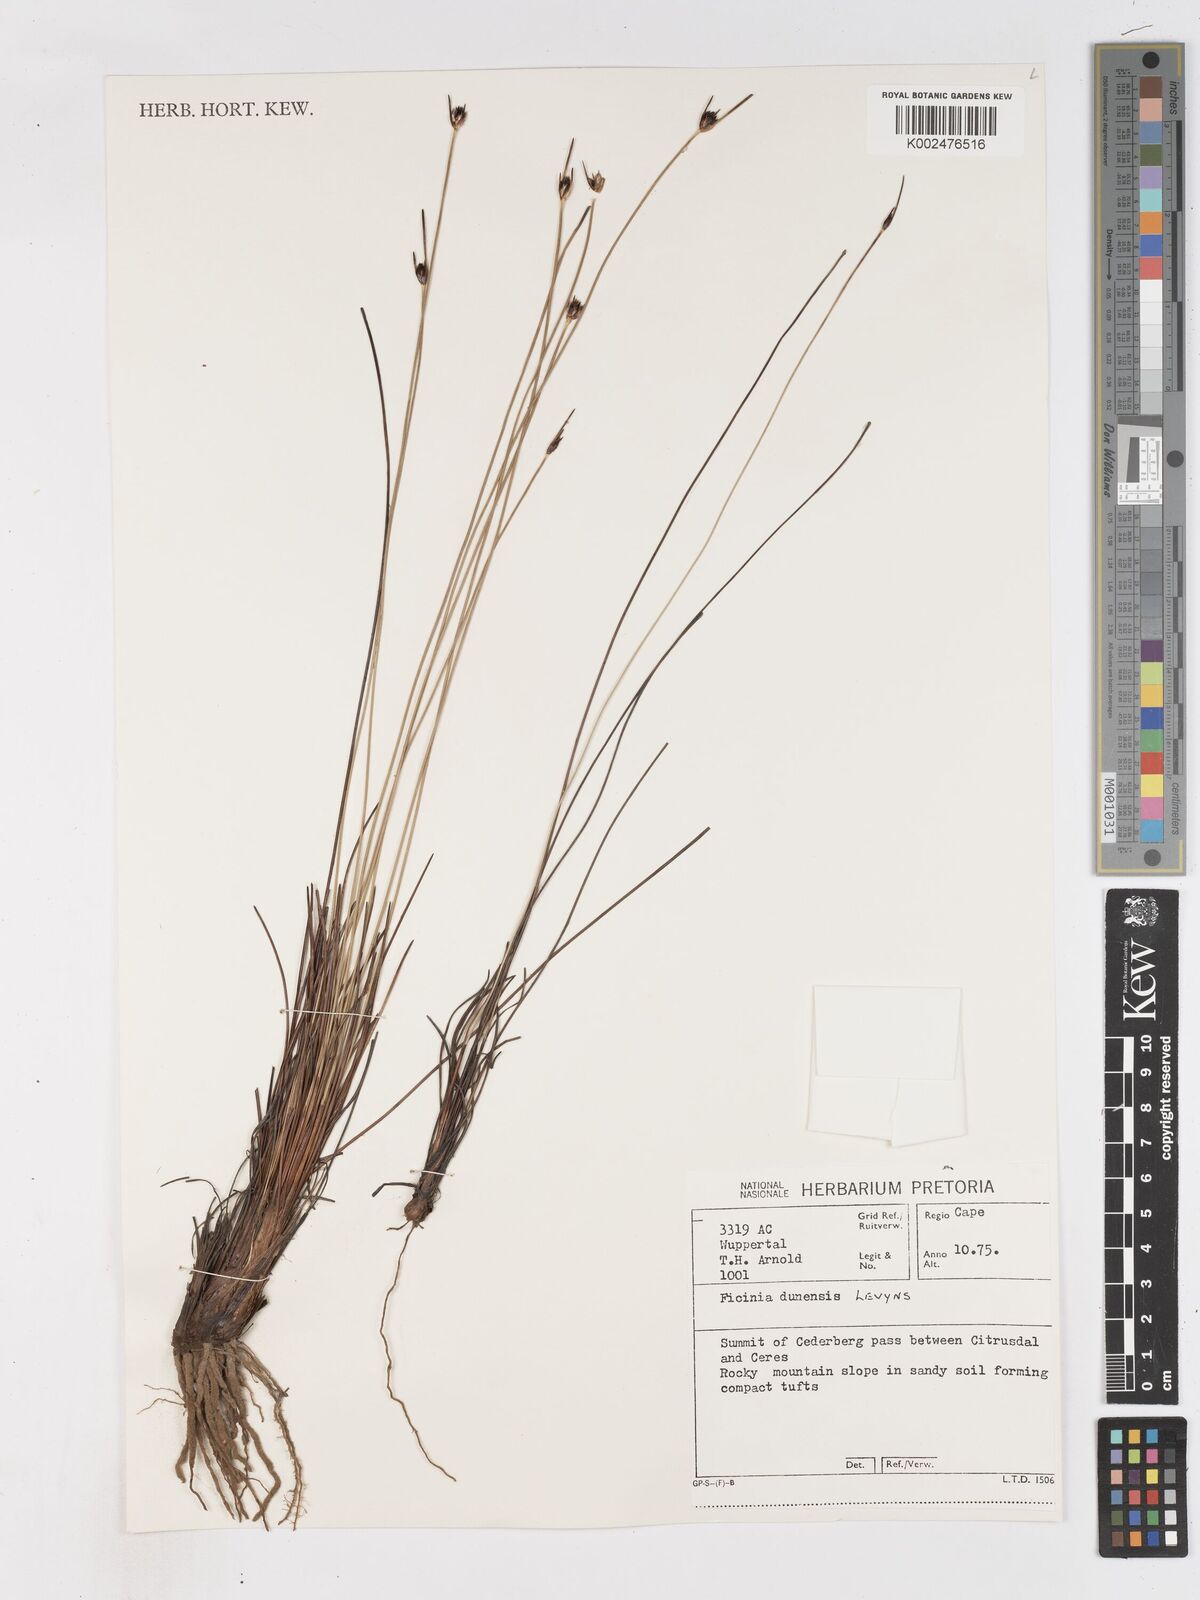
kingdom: Plantae
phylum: Tracheophyta
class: Liliopsida
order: Poales
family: Cyperaceae
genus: Ficinia
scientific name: Ficinia dunensis
